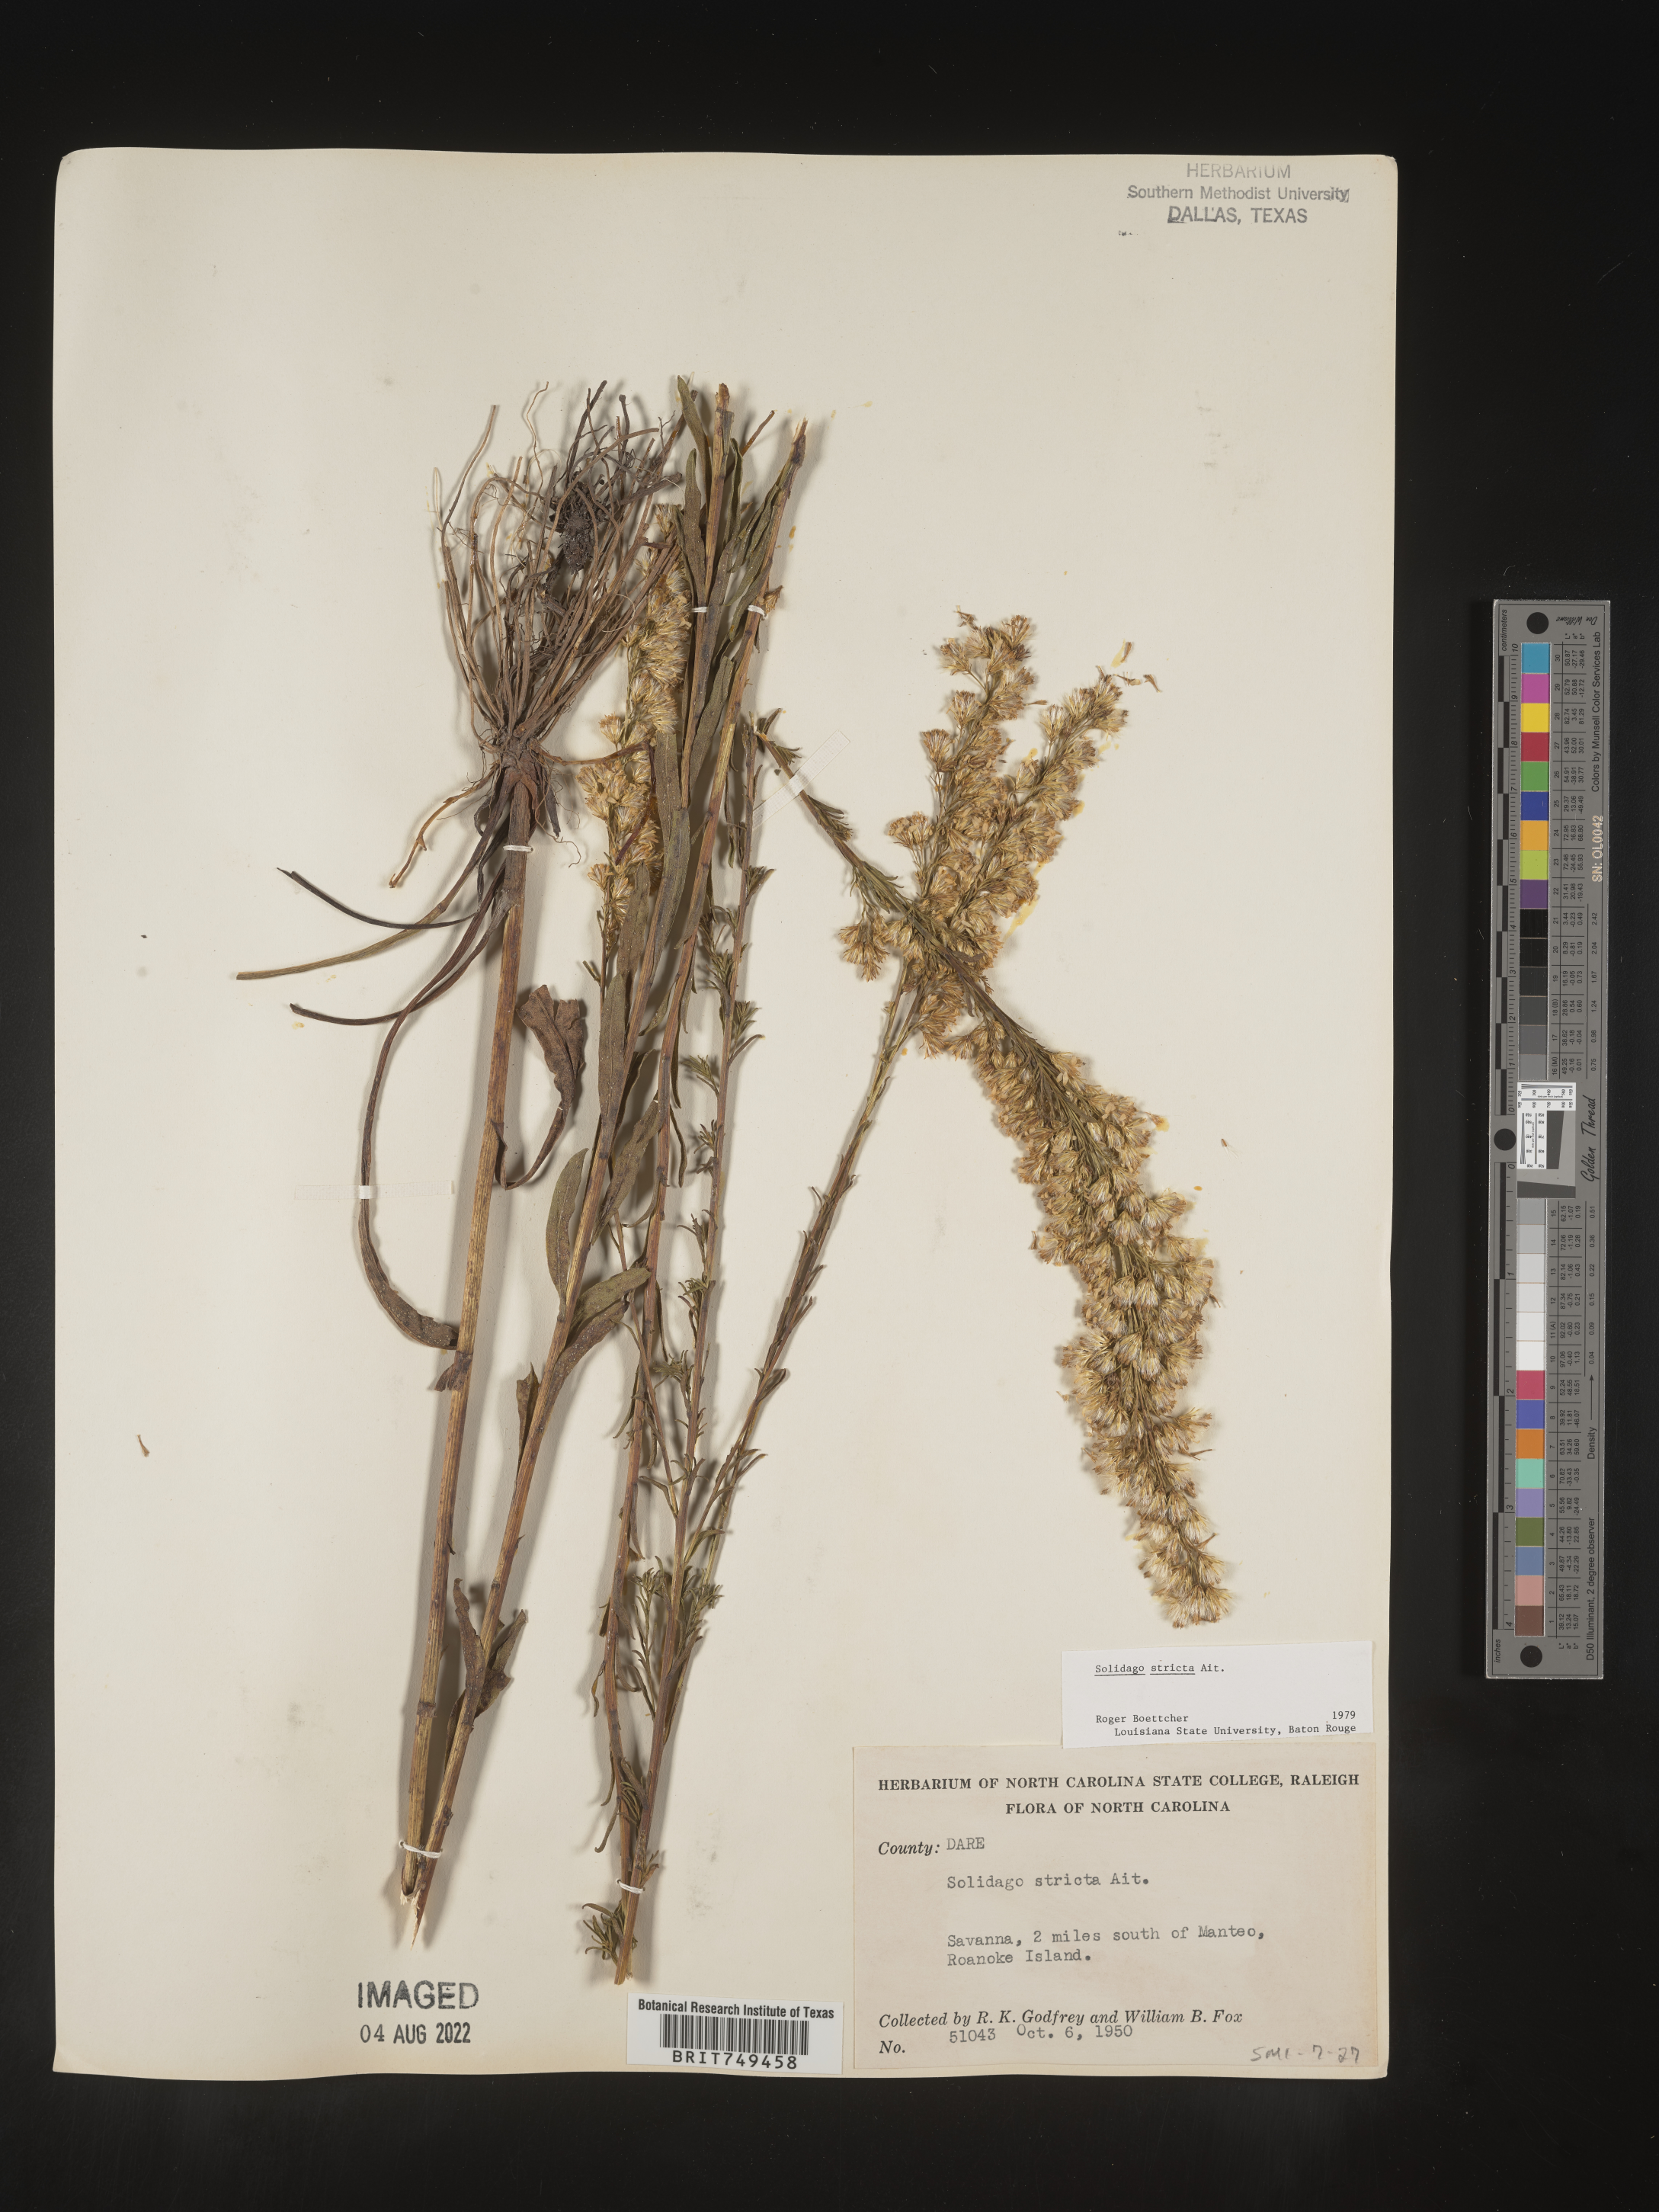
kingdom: Plantae
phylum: Tracheophyta
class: Magnoliopsida
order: Asterales
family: Asteraceae
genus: Solidago
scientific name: Solidago stricta
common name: Pine barren bog goldenrod
